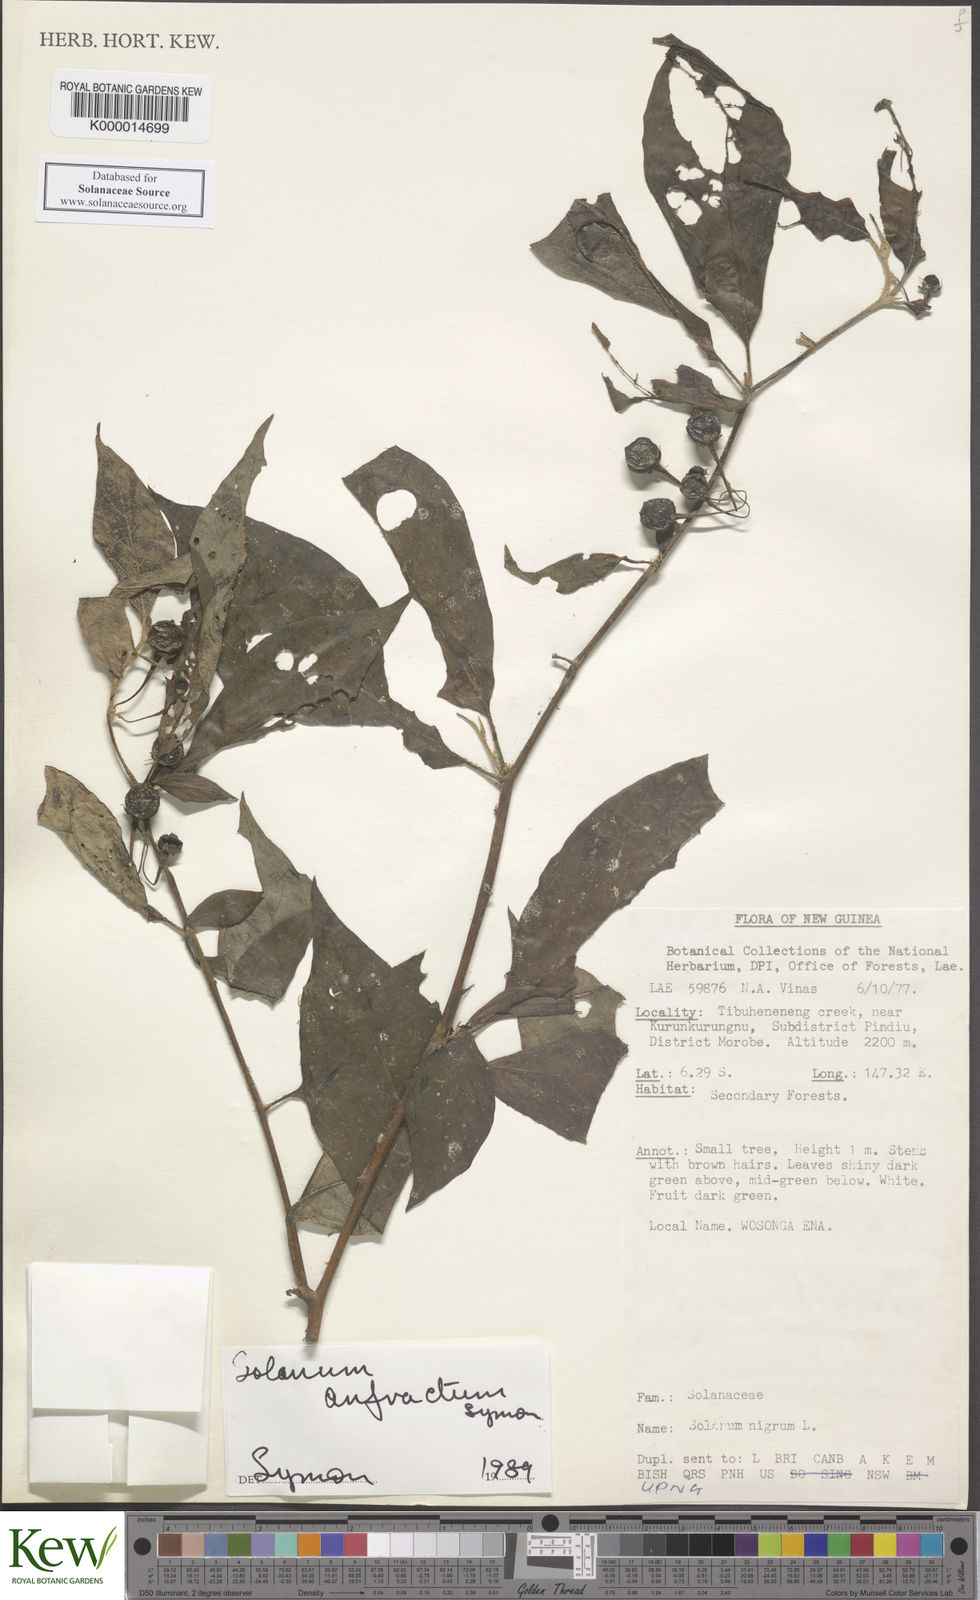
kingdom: Plantae
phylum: Tracheophyta
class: Magnoliopsida
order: Solanales
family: Solanaceae
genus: Solanum
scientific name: Solanum anfractum
